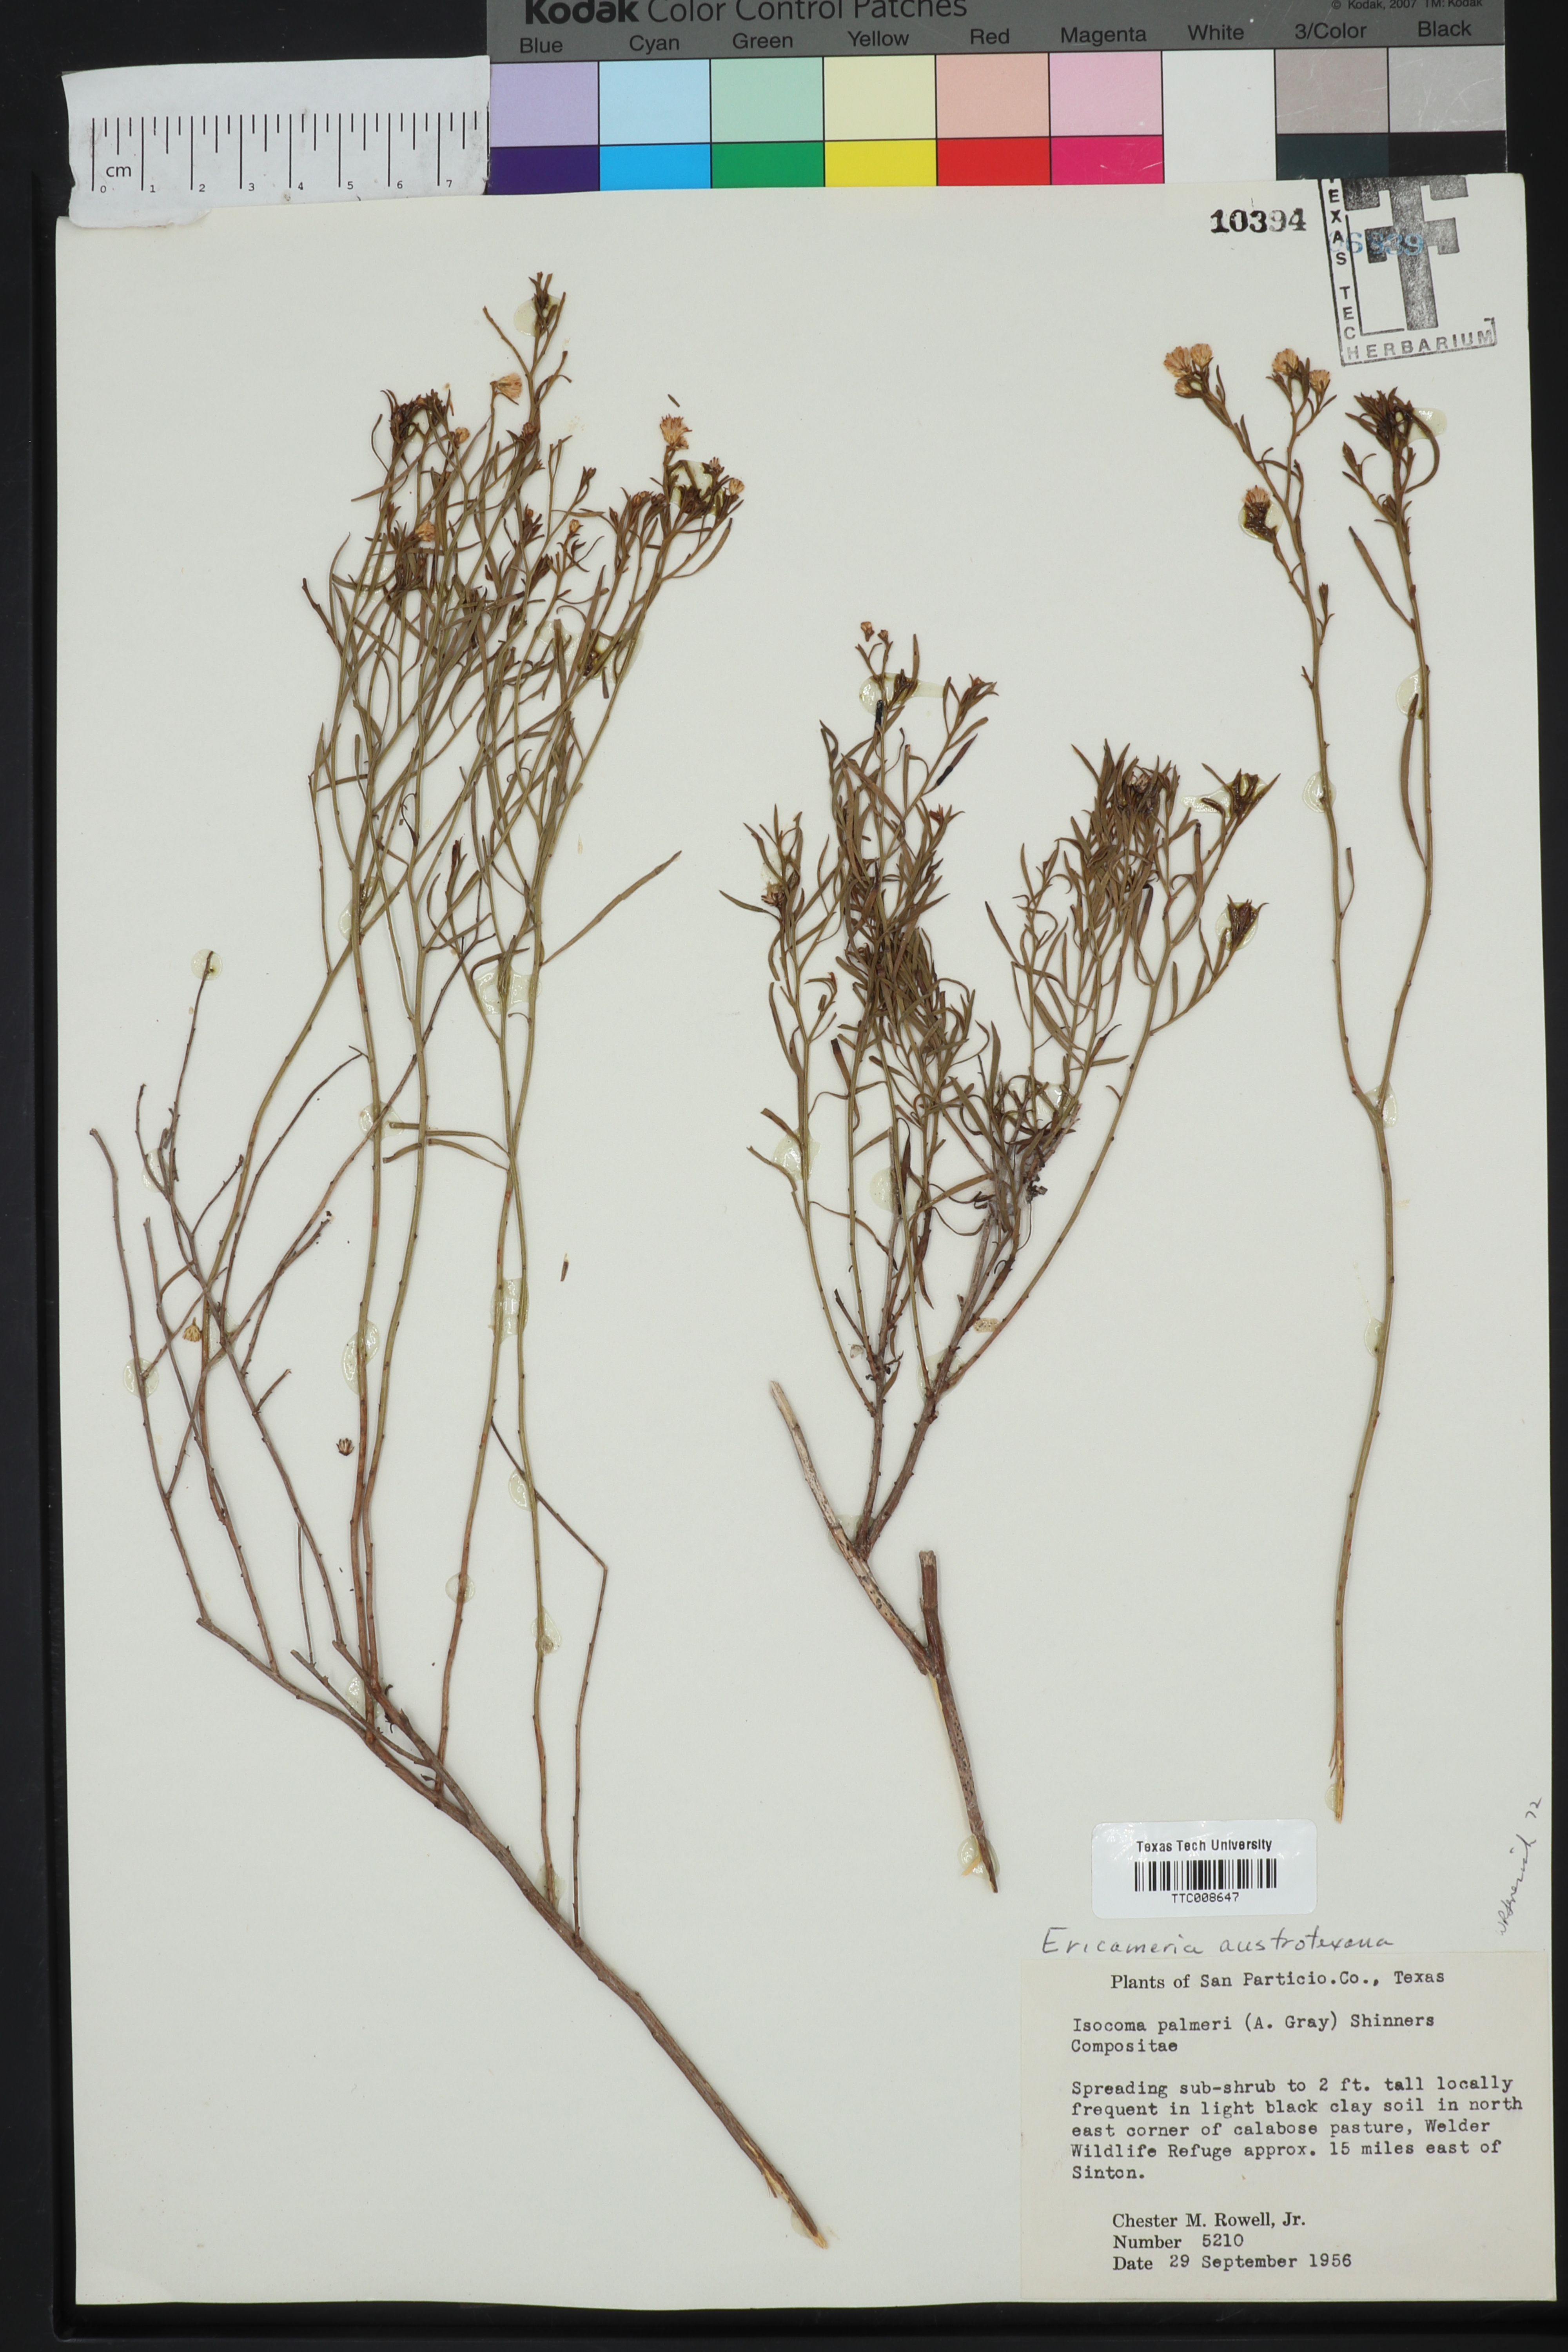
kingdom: Plantae
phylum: Tracheophyta
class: Magnoliopsida
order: Asterales
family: Asteraceae
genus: Medranoa
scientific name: Medranoa palmeri
